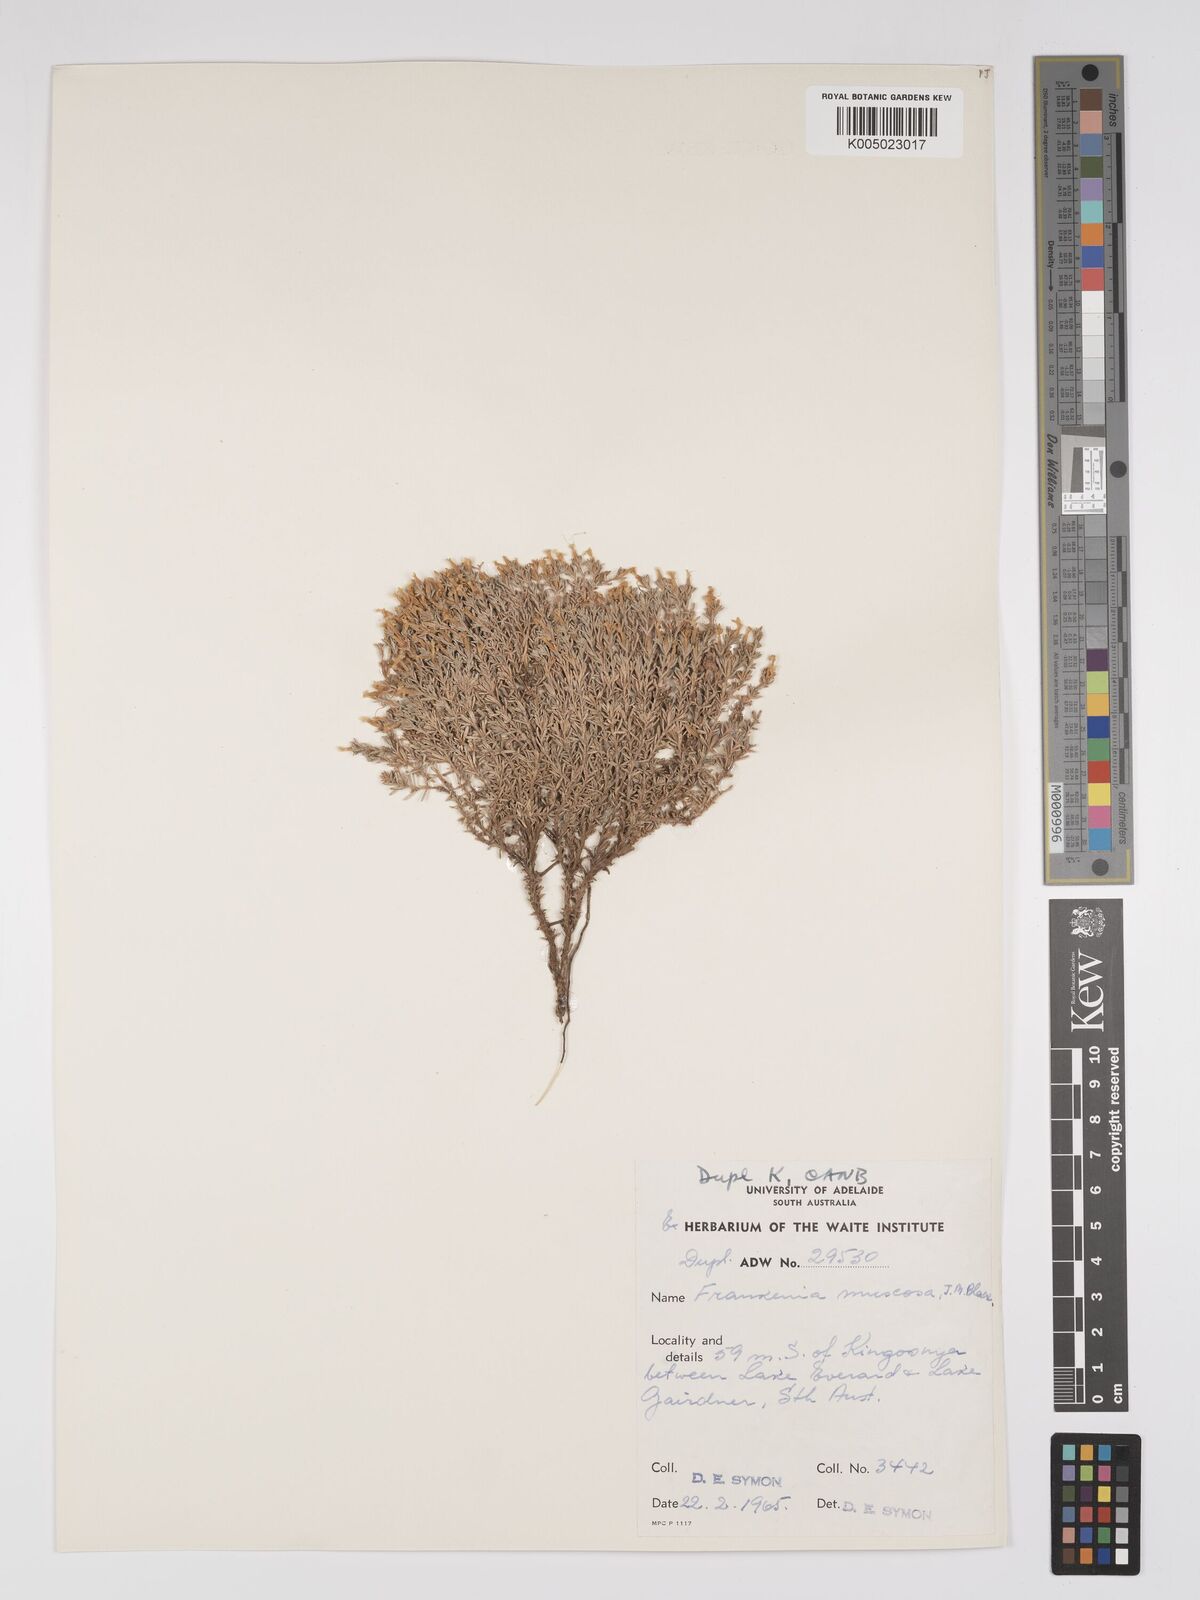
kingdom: Plantae
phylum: Tracheophyta
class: Magnoliopsida
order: Caryophyllales
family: Frankeniaceae
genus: Frankenia
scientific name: Frankenia muscosa
